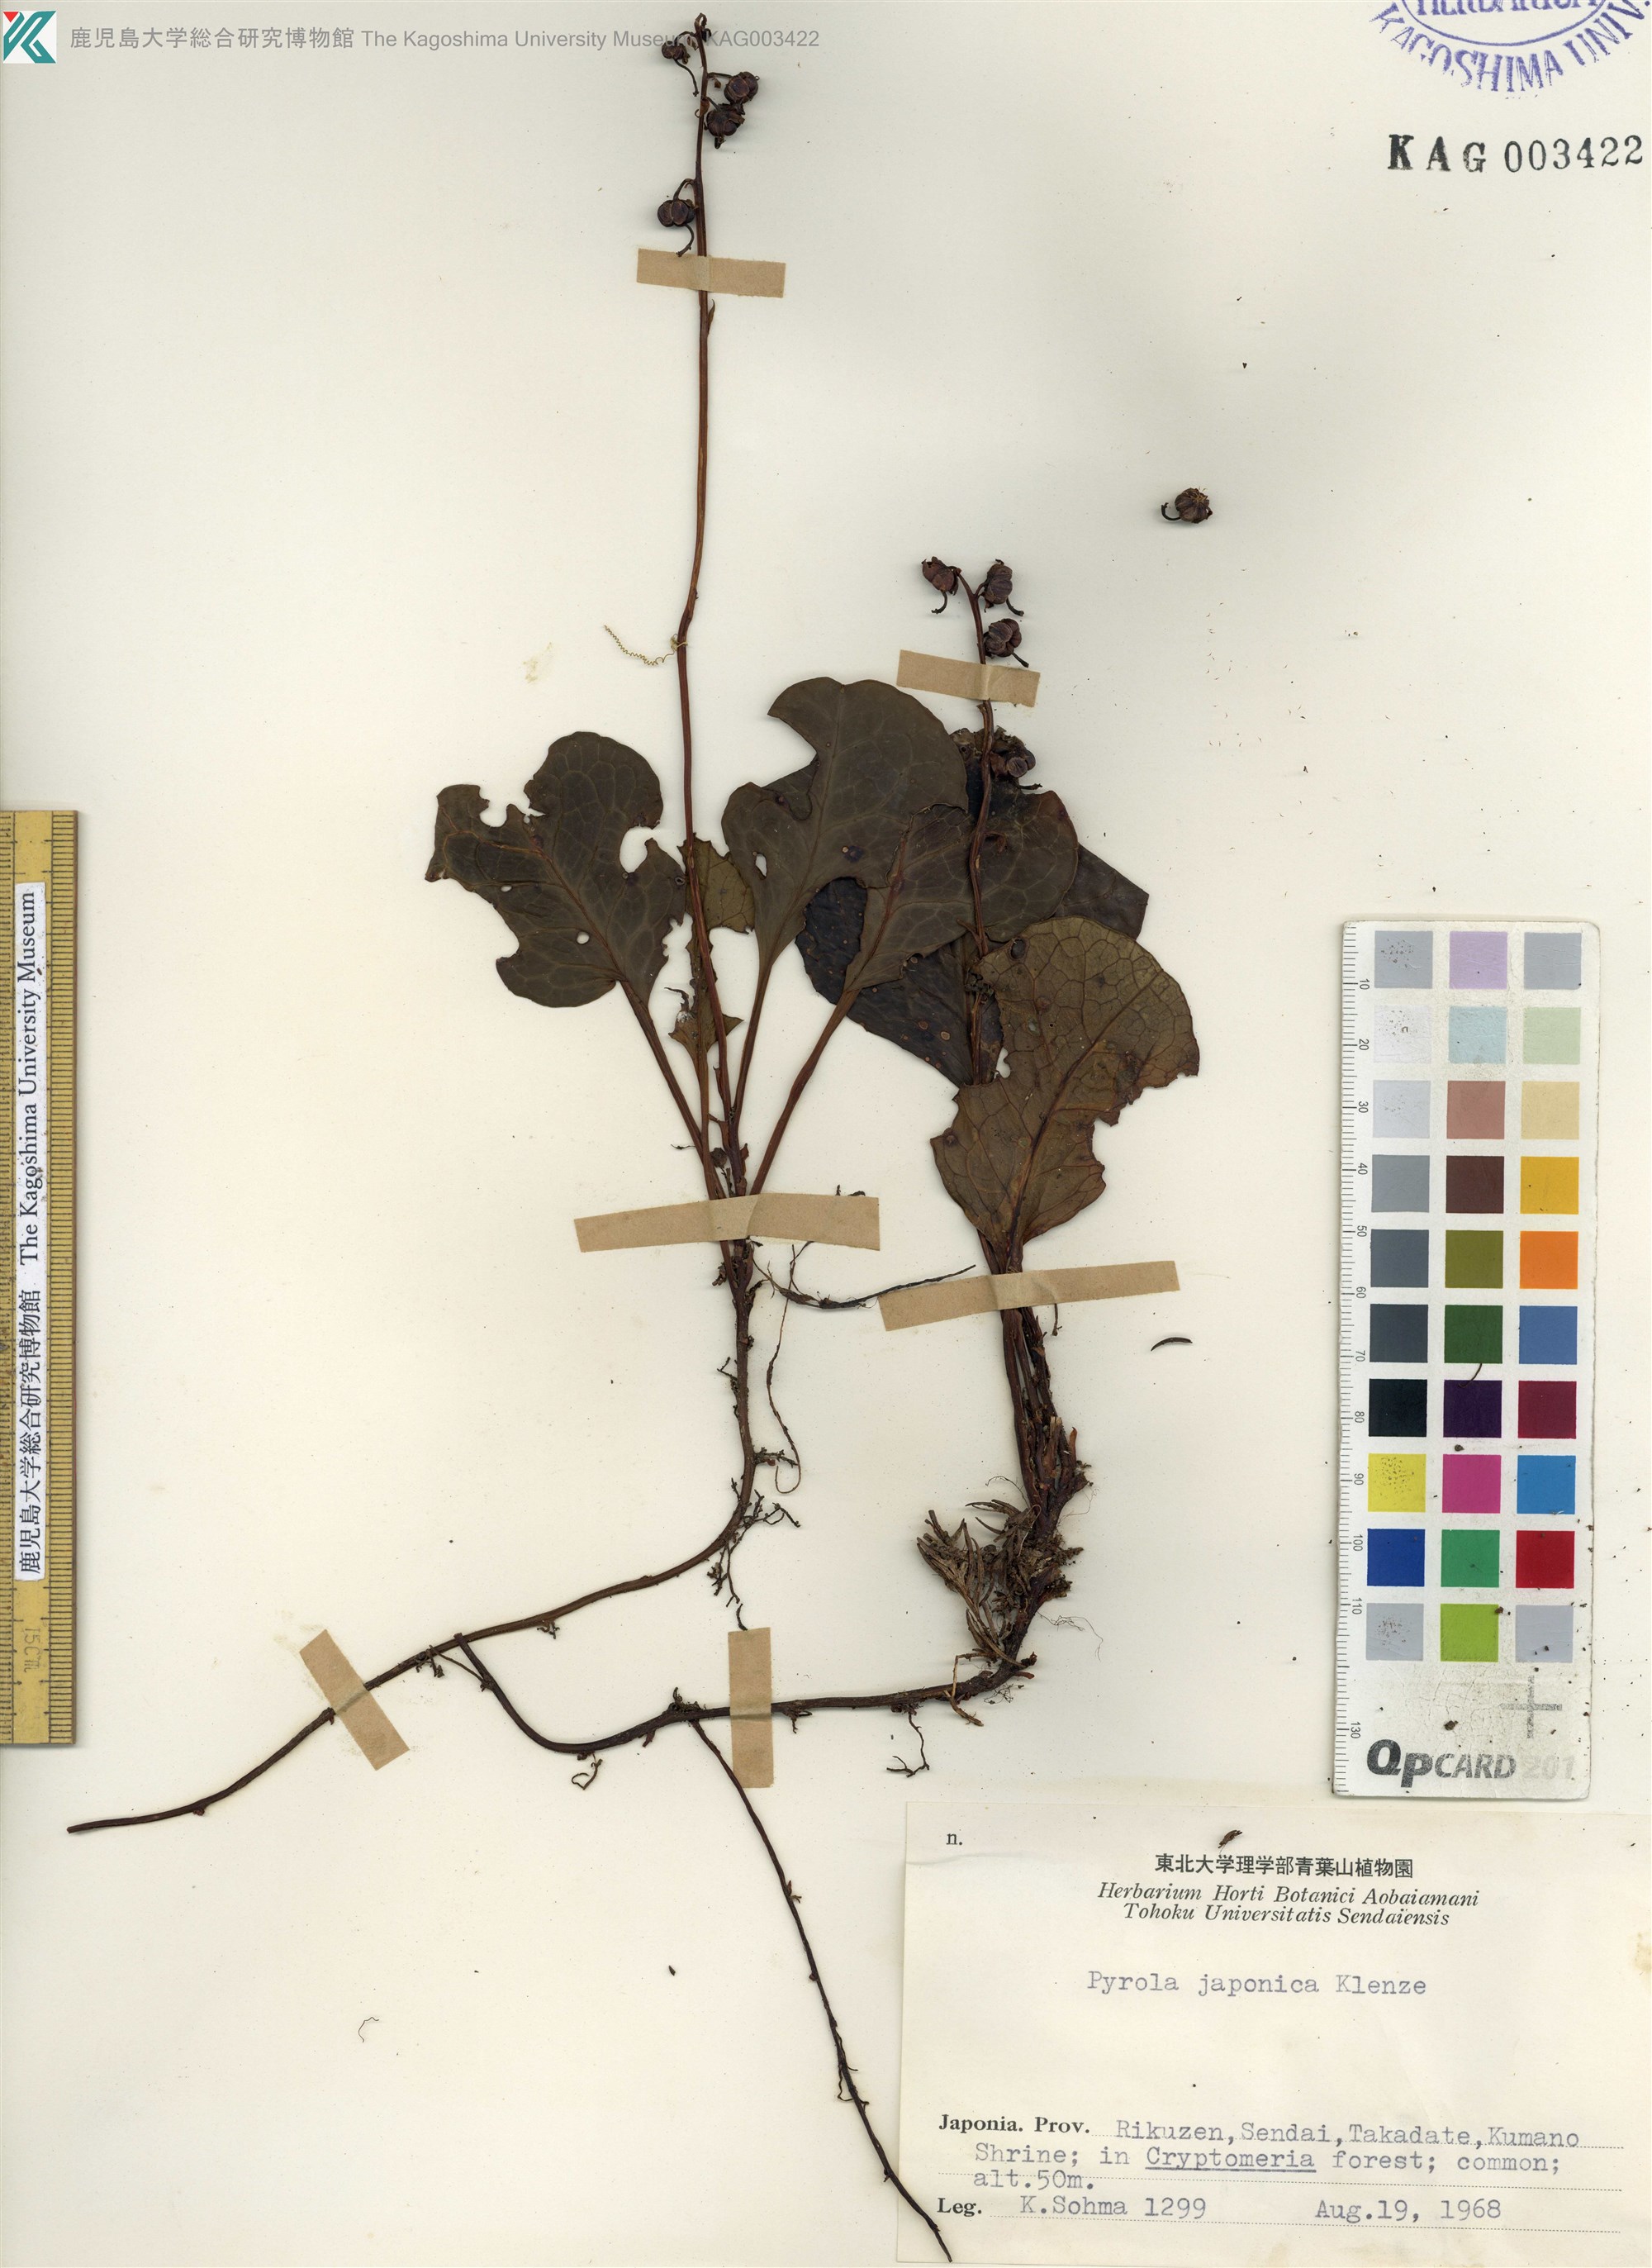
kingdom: Plantae
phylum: Tracheophyta
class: Magnoliopsida
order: Ericales
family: Ericaceae
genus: Pyrola
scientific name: Pyrola japonica
